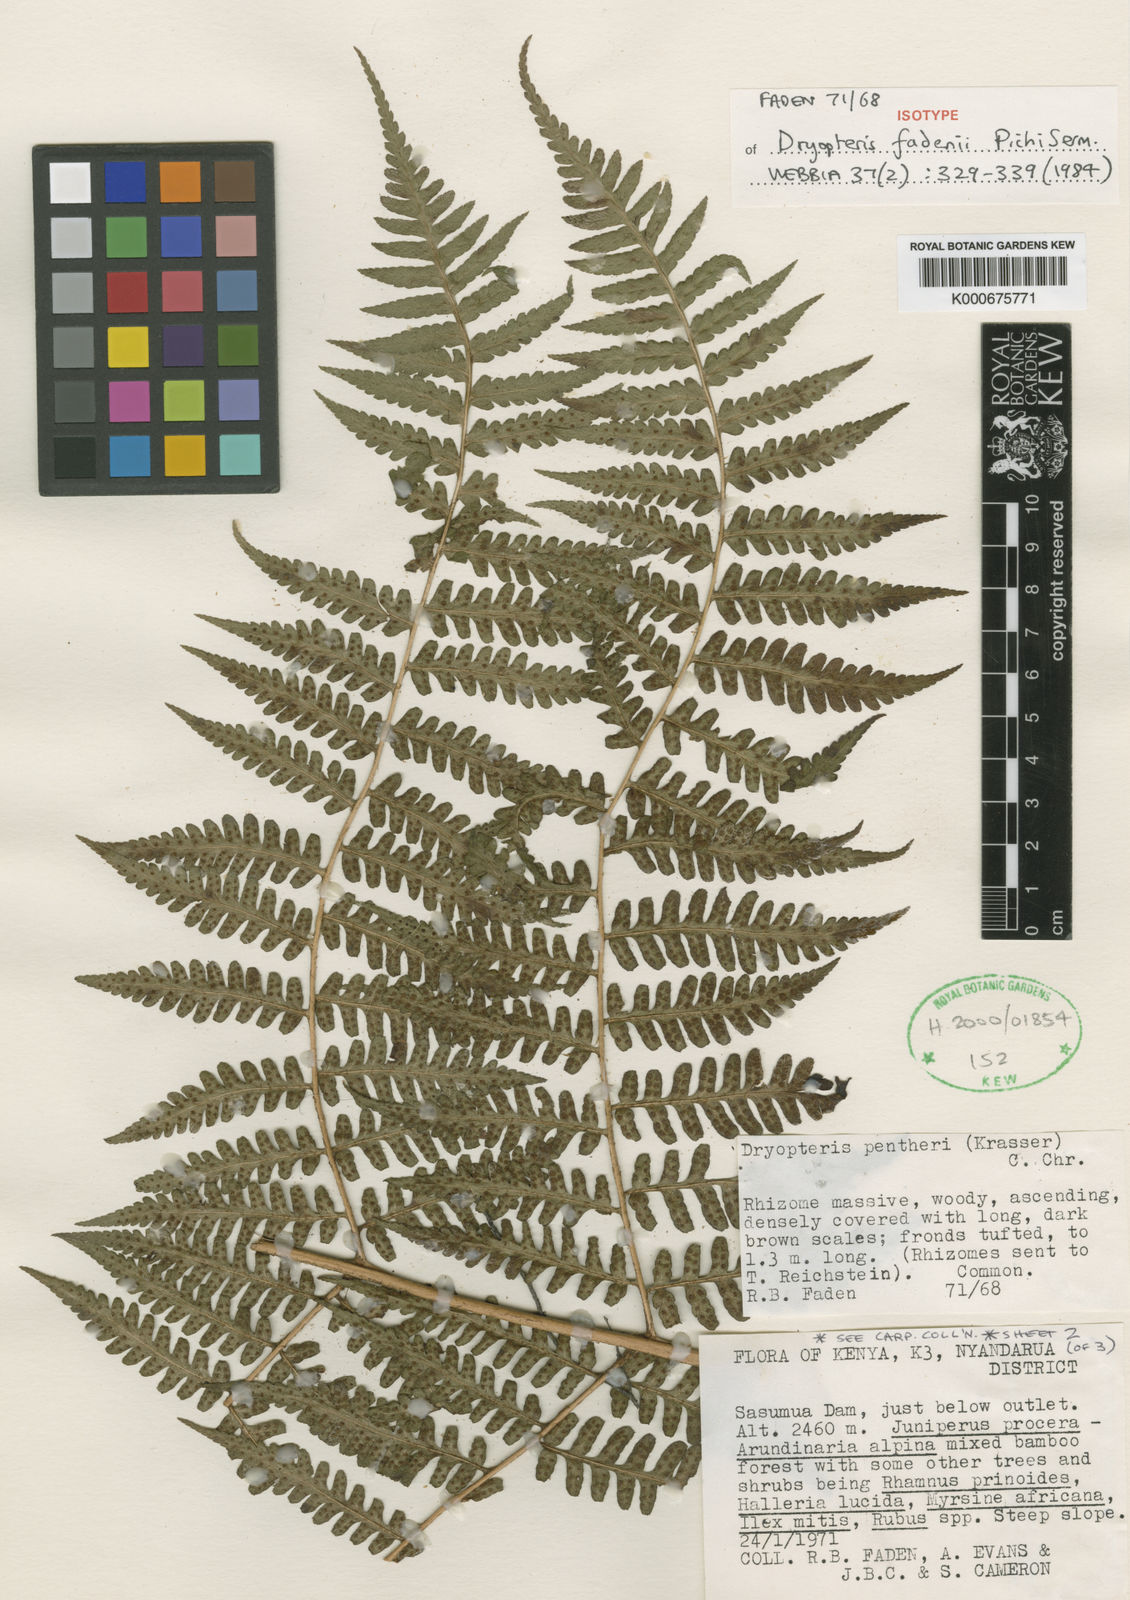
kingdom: Plantae
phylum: Tracheophyta
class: Polypodiopsida
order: Polypodiales
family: Dryopteridaceae
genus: Dryopteris
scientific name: Dryopteris fadenii
